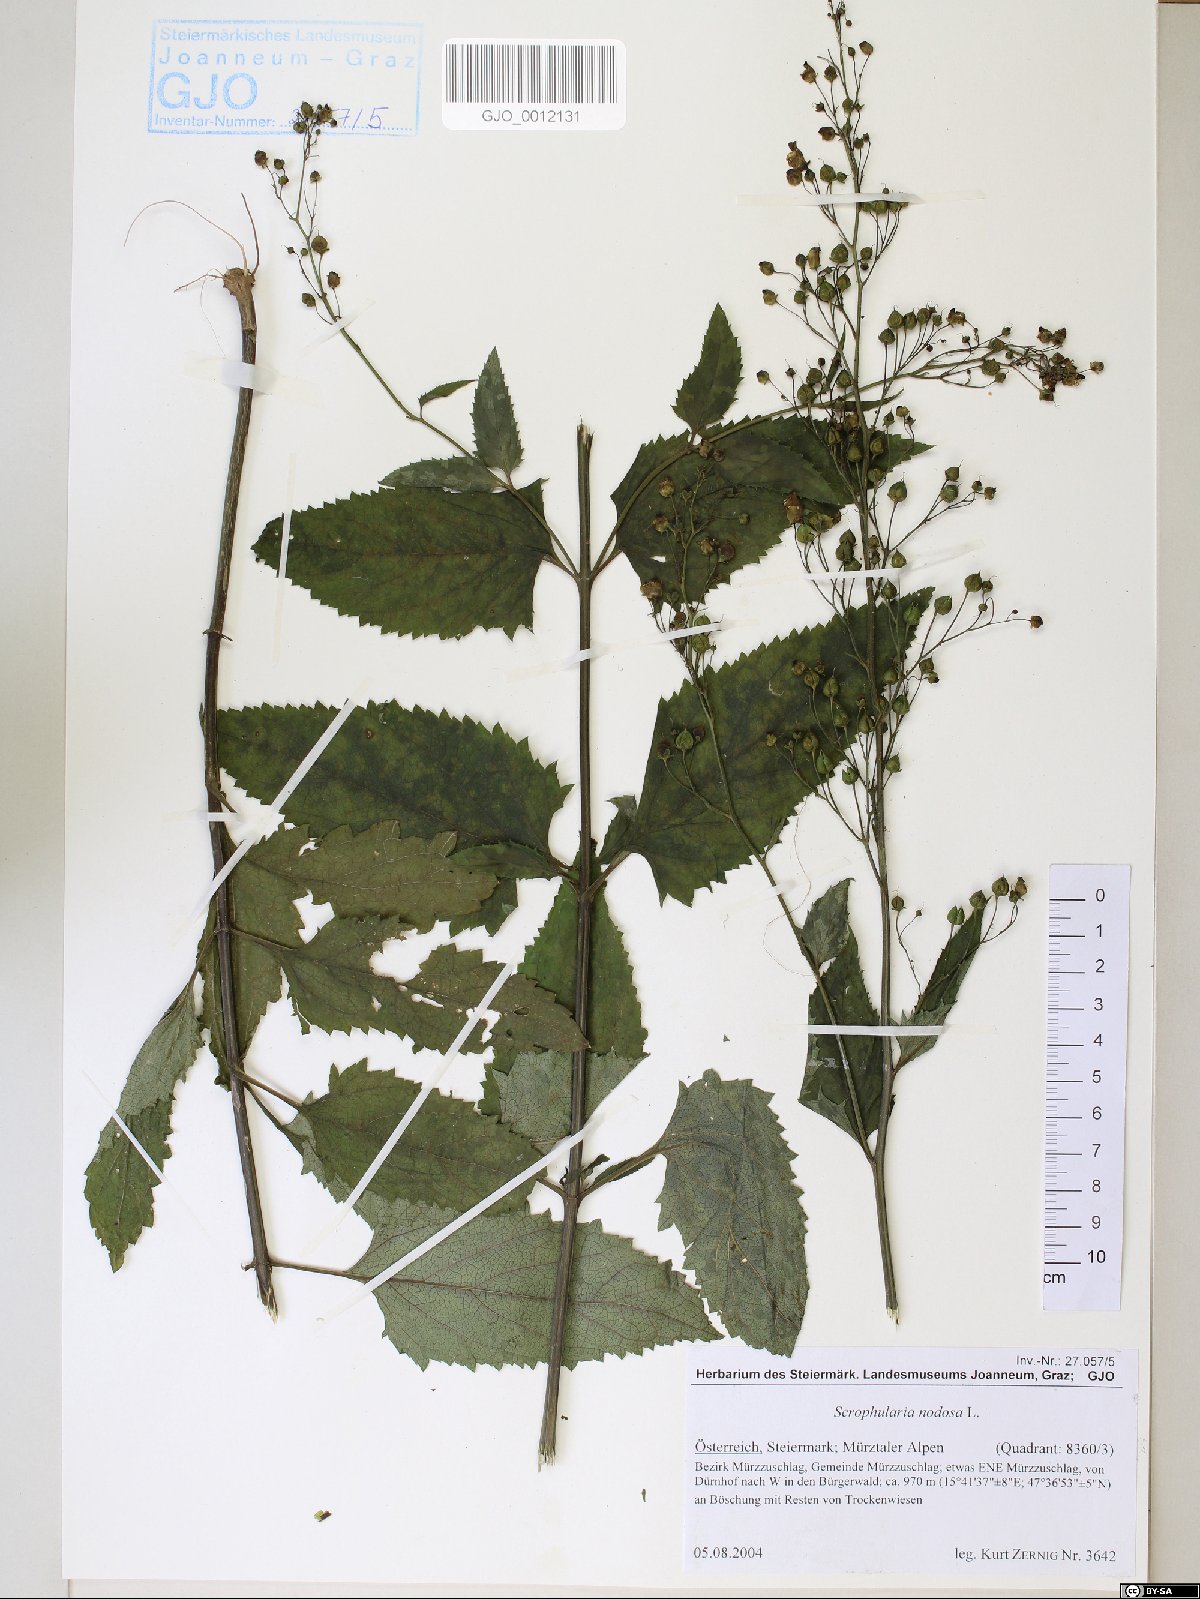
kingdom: Plantae
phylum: Tracheophyta
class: Magnoliopsida
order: Lamiales
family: Scrophulariaceae
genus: Scrophularia
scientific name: Scrophularia nodosa
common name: Common figwort
